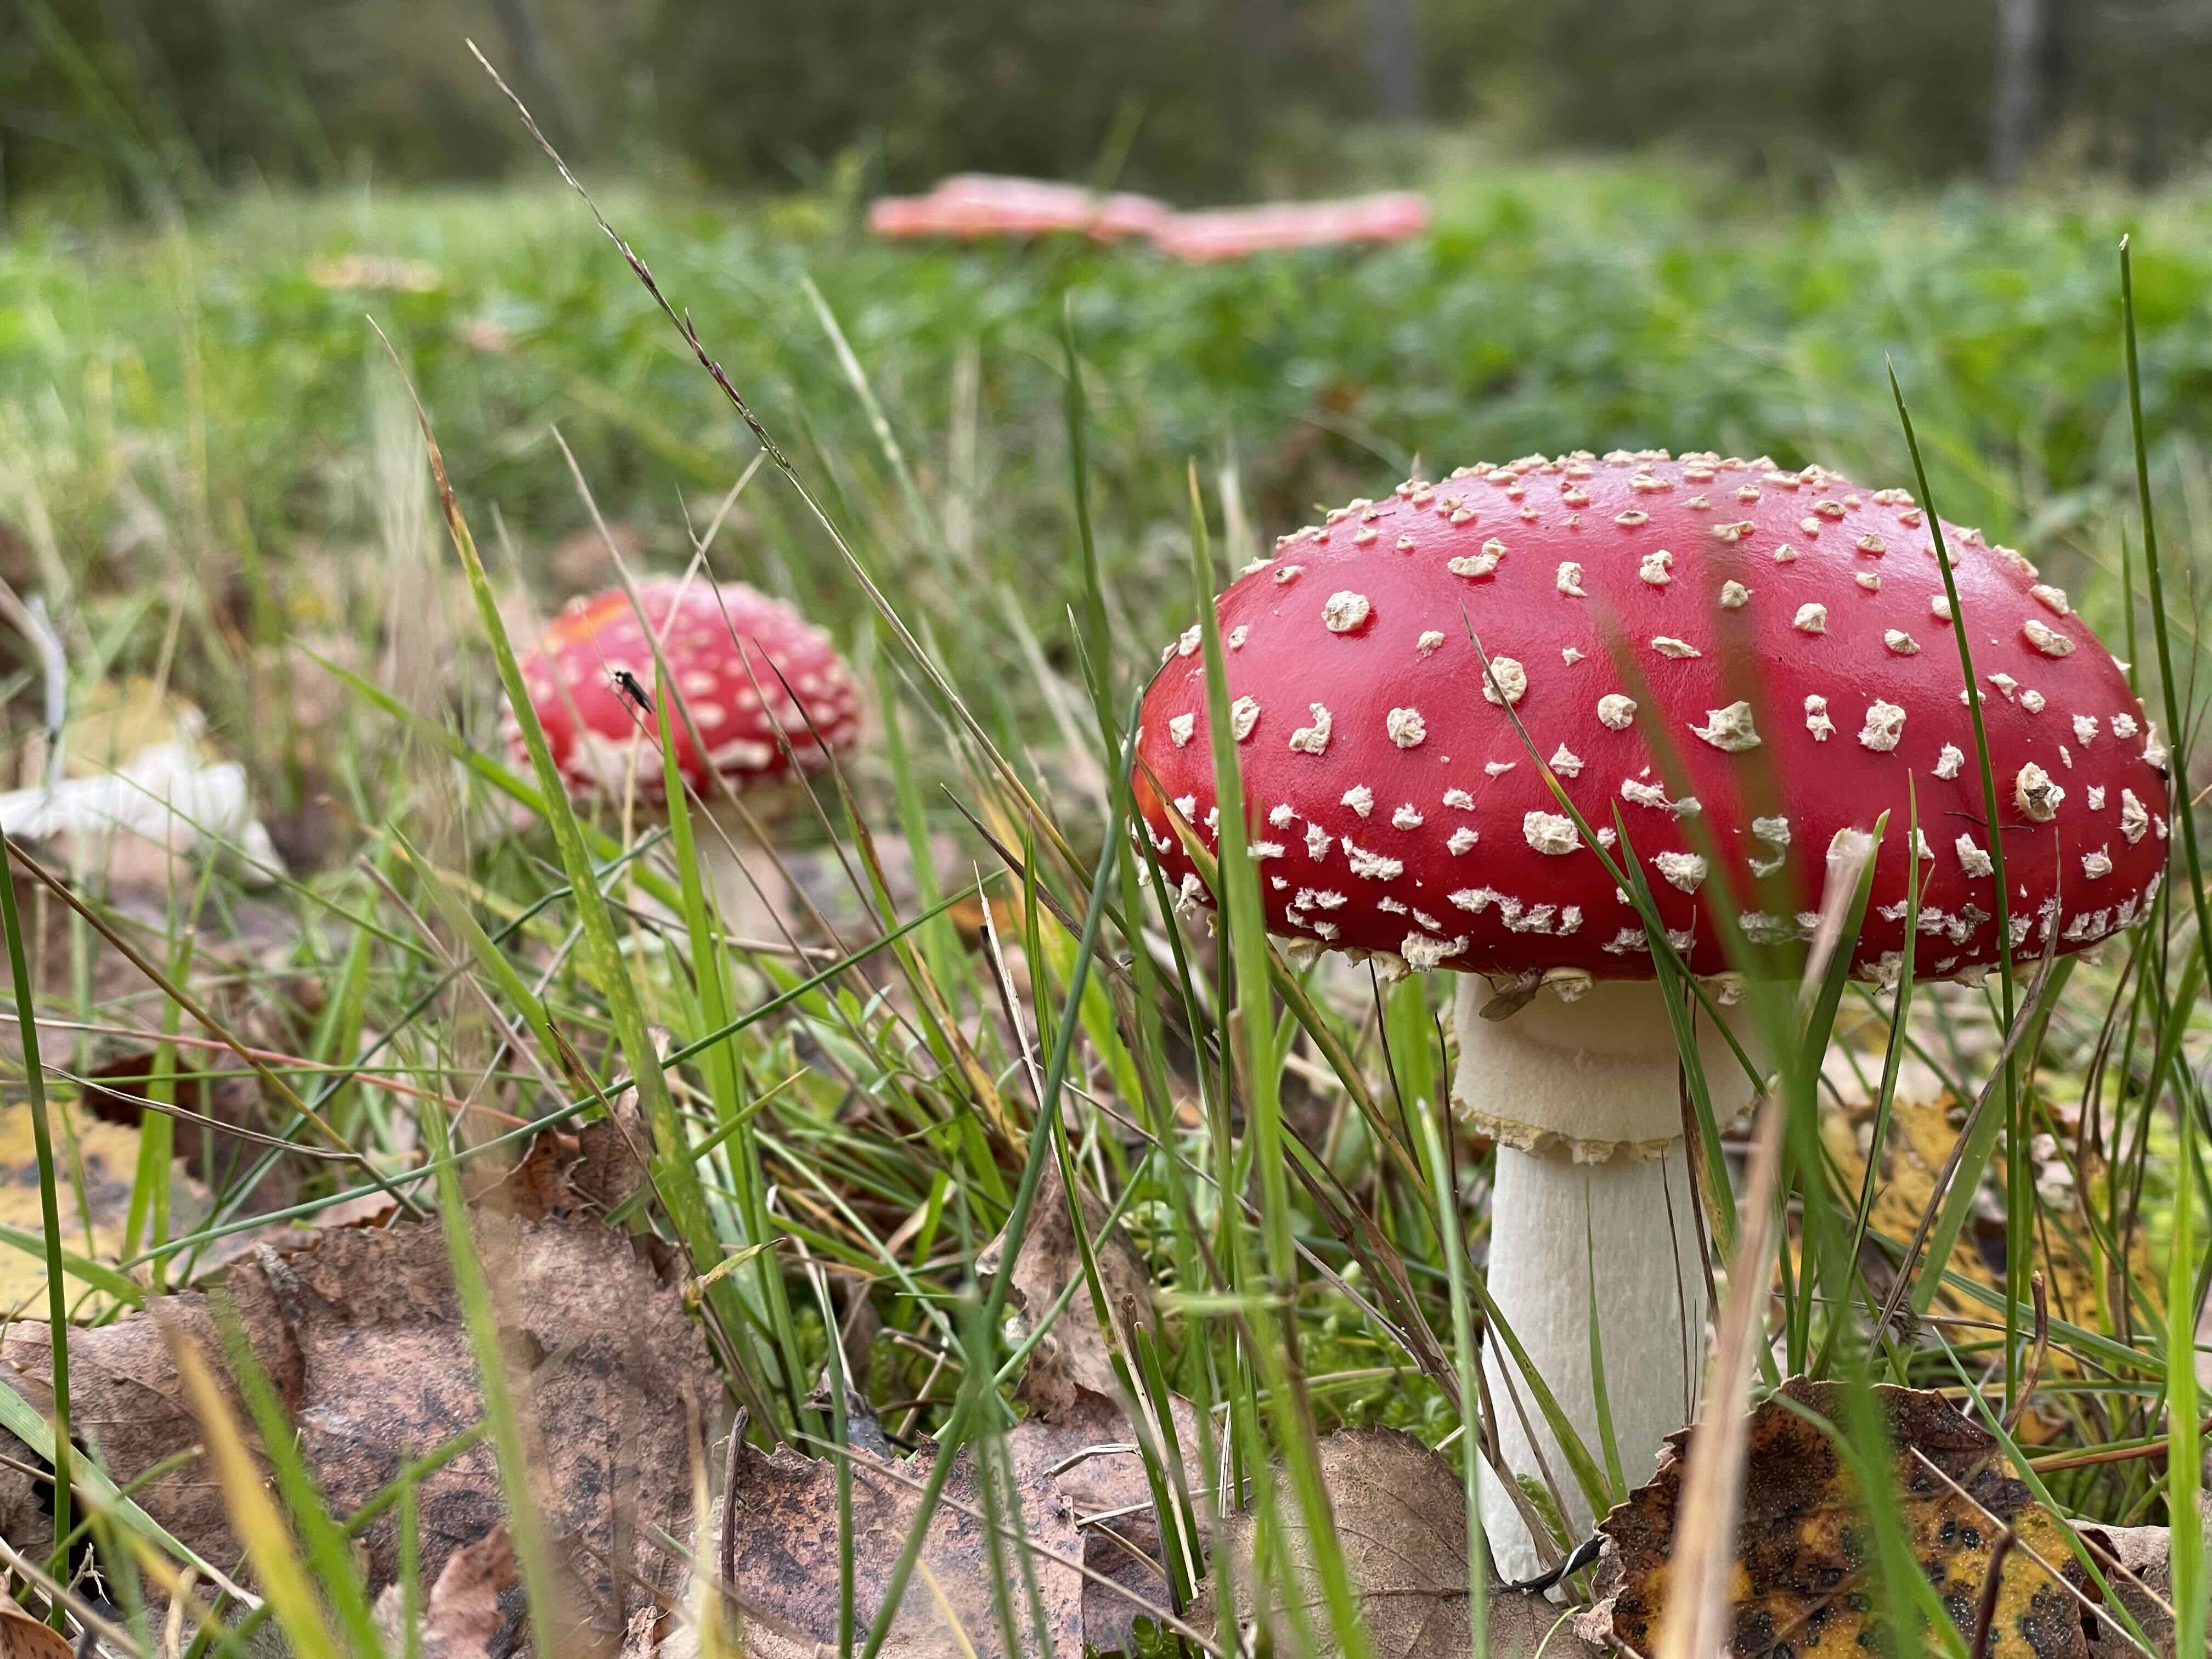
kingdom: Fungi
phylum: Basidiomycota
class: Agaricomycetes
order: Agaricales
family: Amanitaceae
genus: Amanita
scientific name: Amanita muscaria
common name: rød fluesvamp
